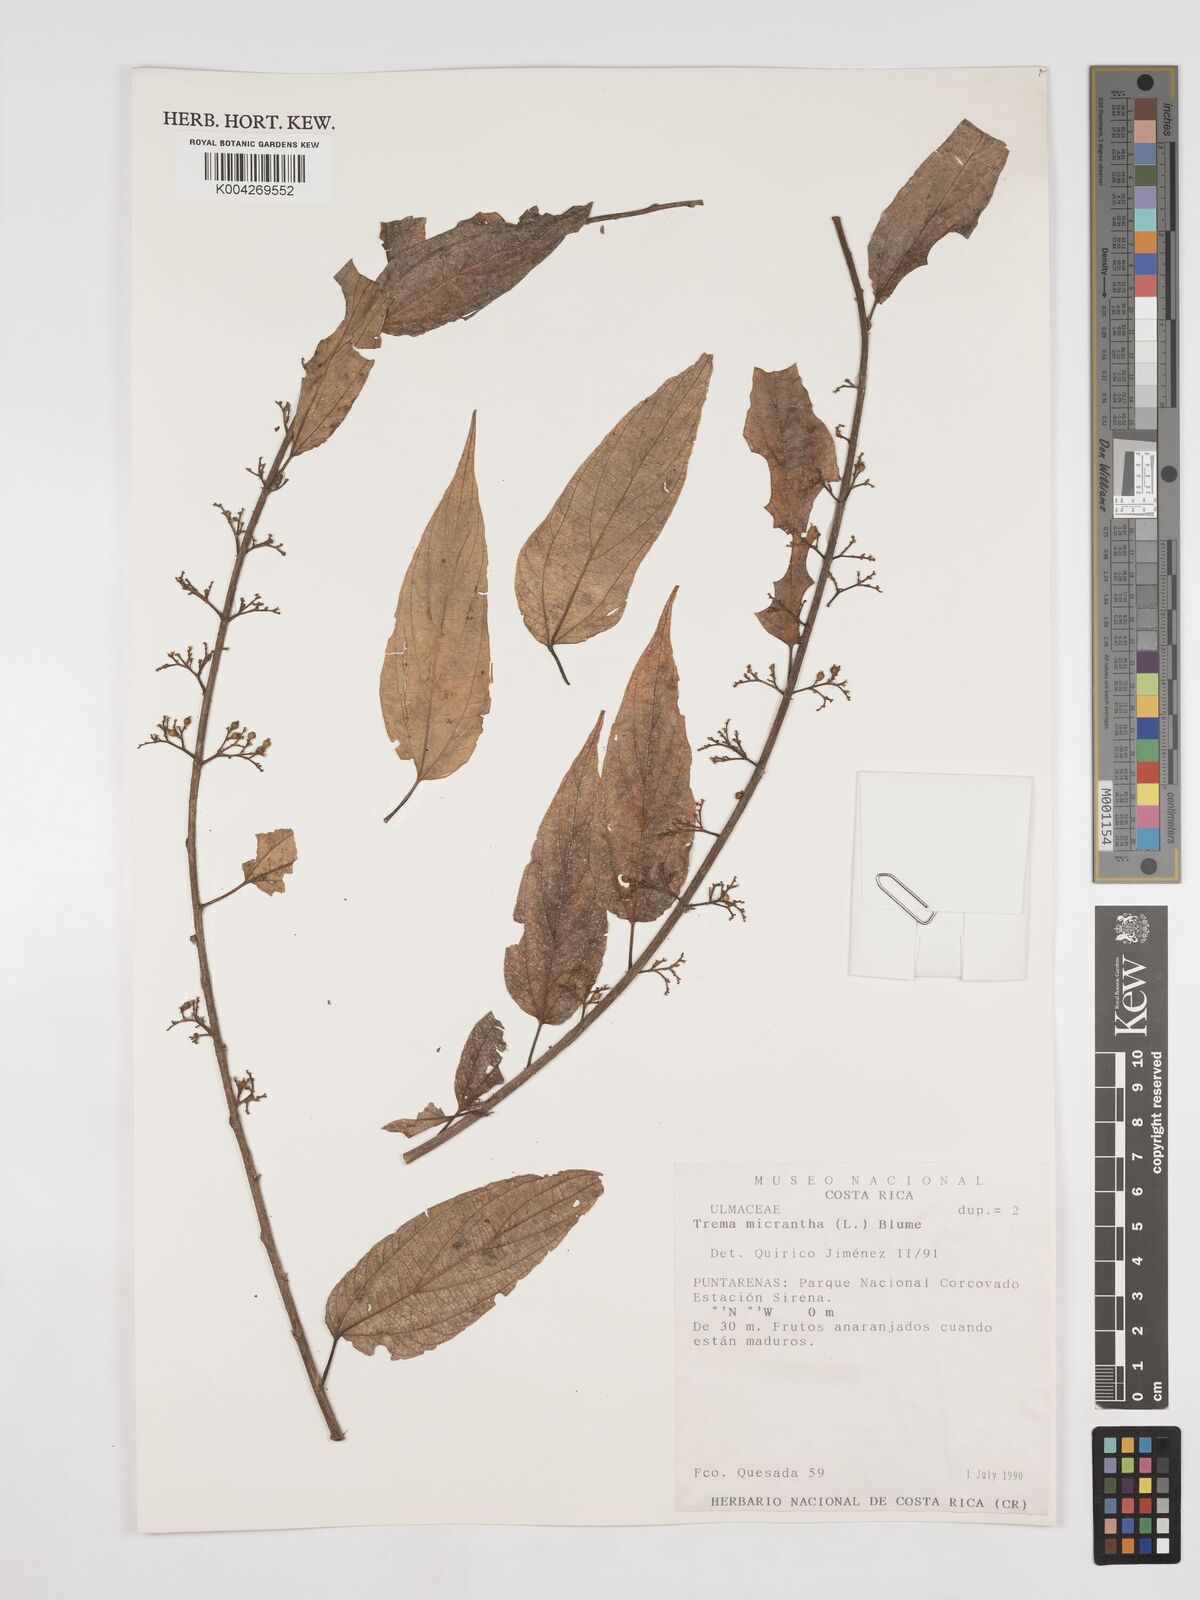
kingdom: Plantae
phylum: Tracheophyta
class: Magnoliopsida
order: Rosales
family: Cannabaceae
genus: Trema
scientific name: Trema micranthum
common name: Jamaican nettletree
